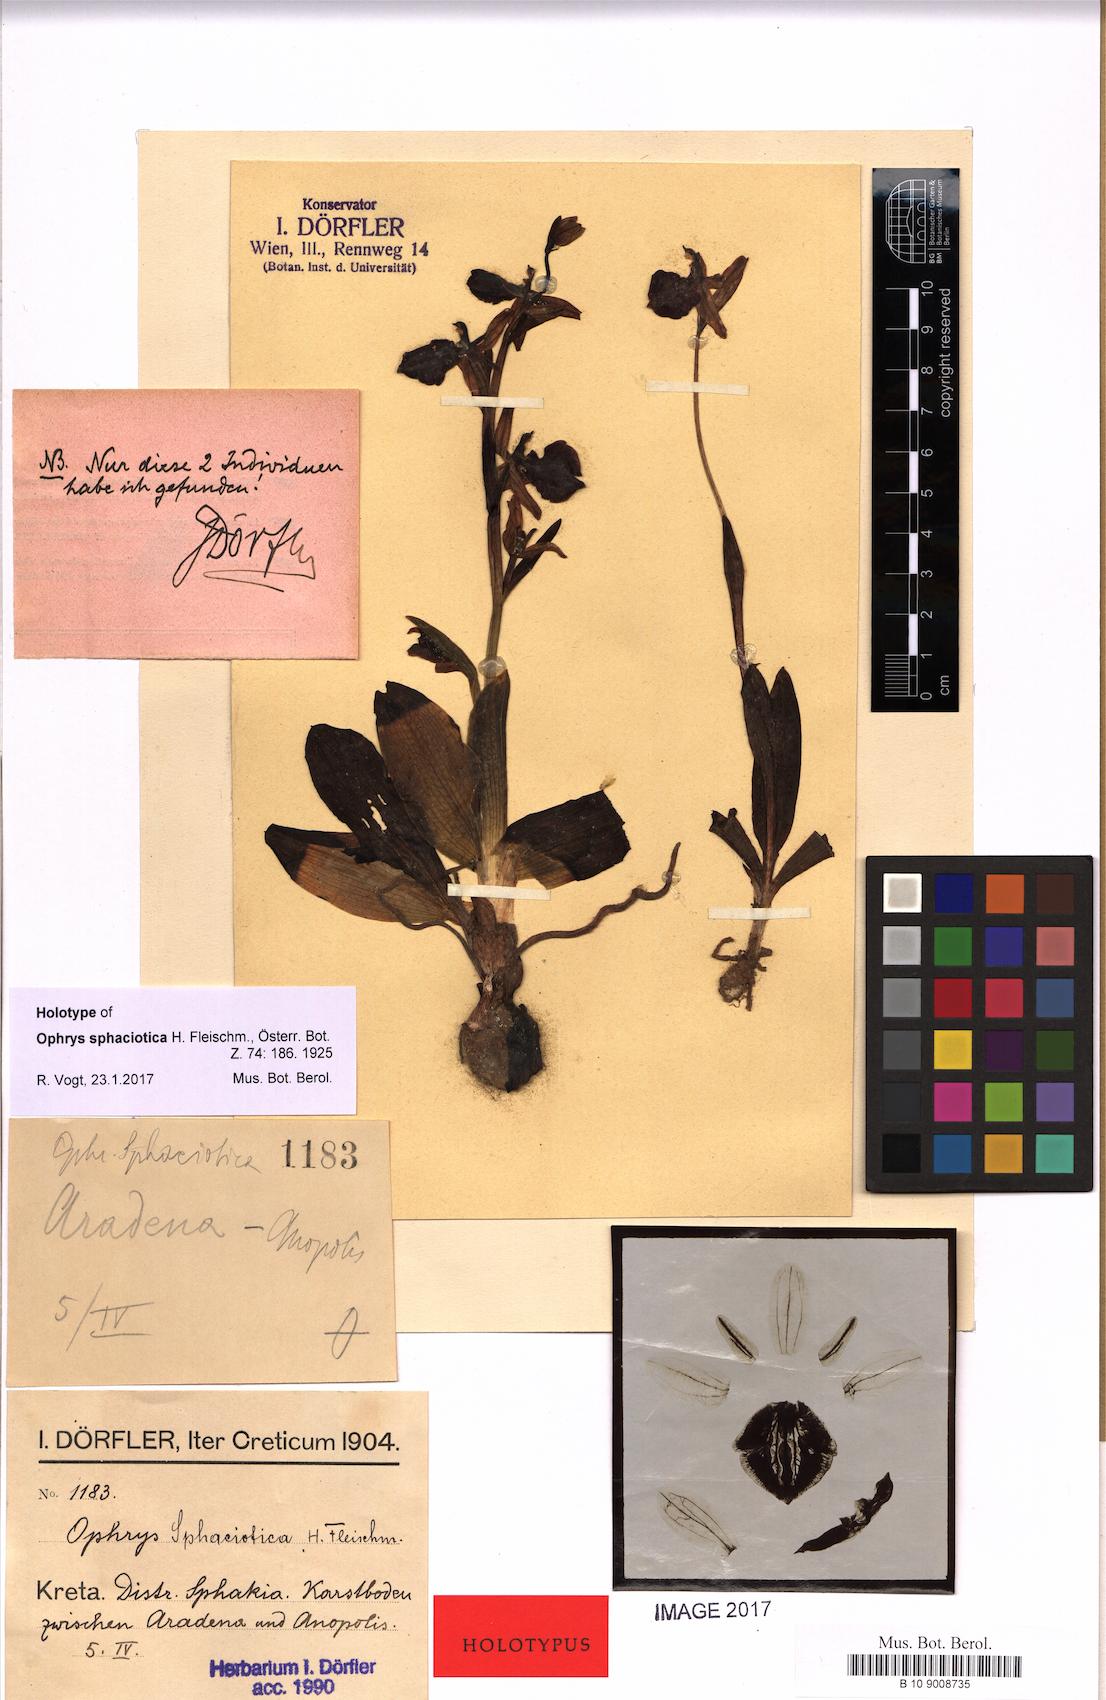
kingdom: Plantae
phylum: Tracheophyta
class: Liliopsida
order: Asparagales
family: Orchidaceae
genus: Ophrys
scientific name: Ophrys sphegodes
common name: Early spider-orchid
